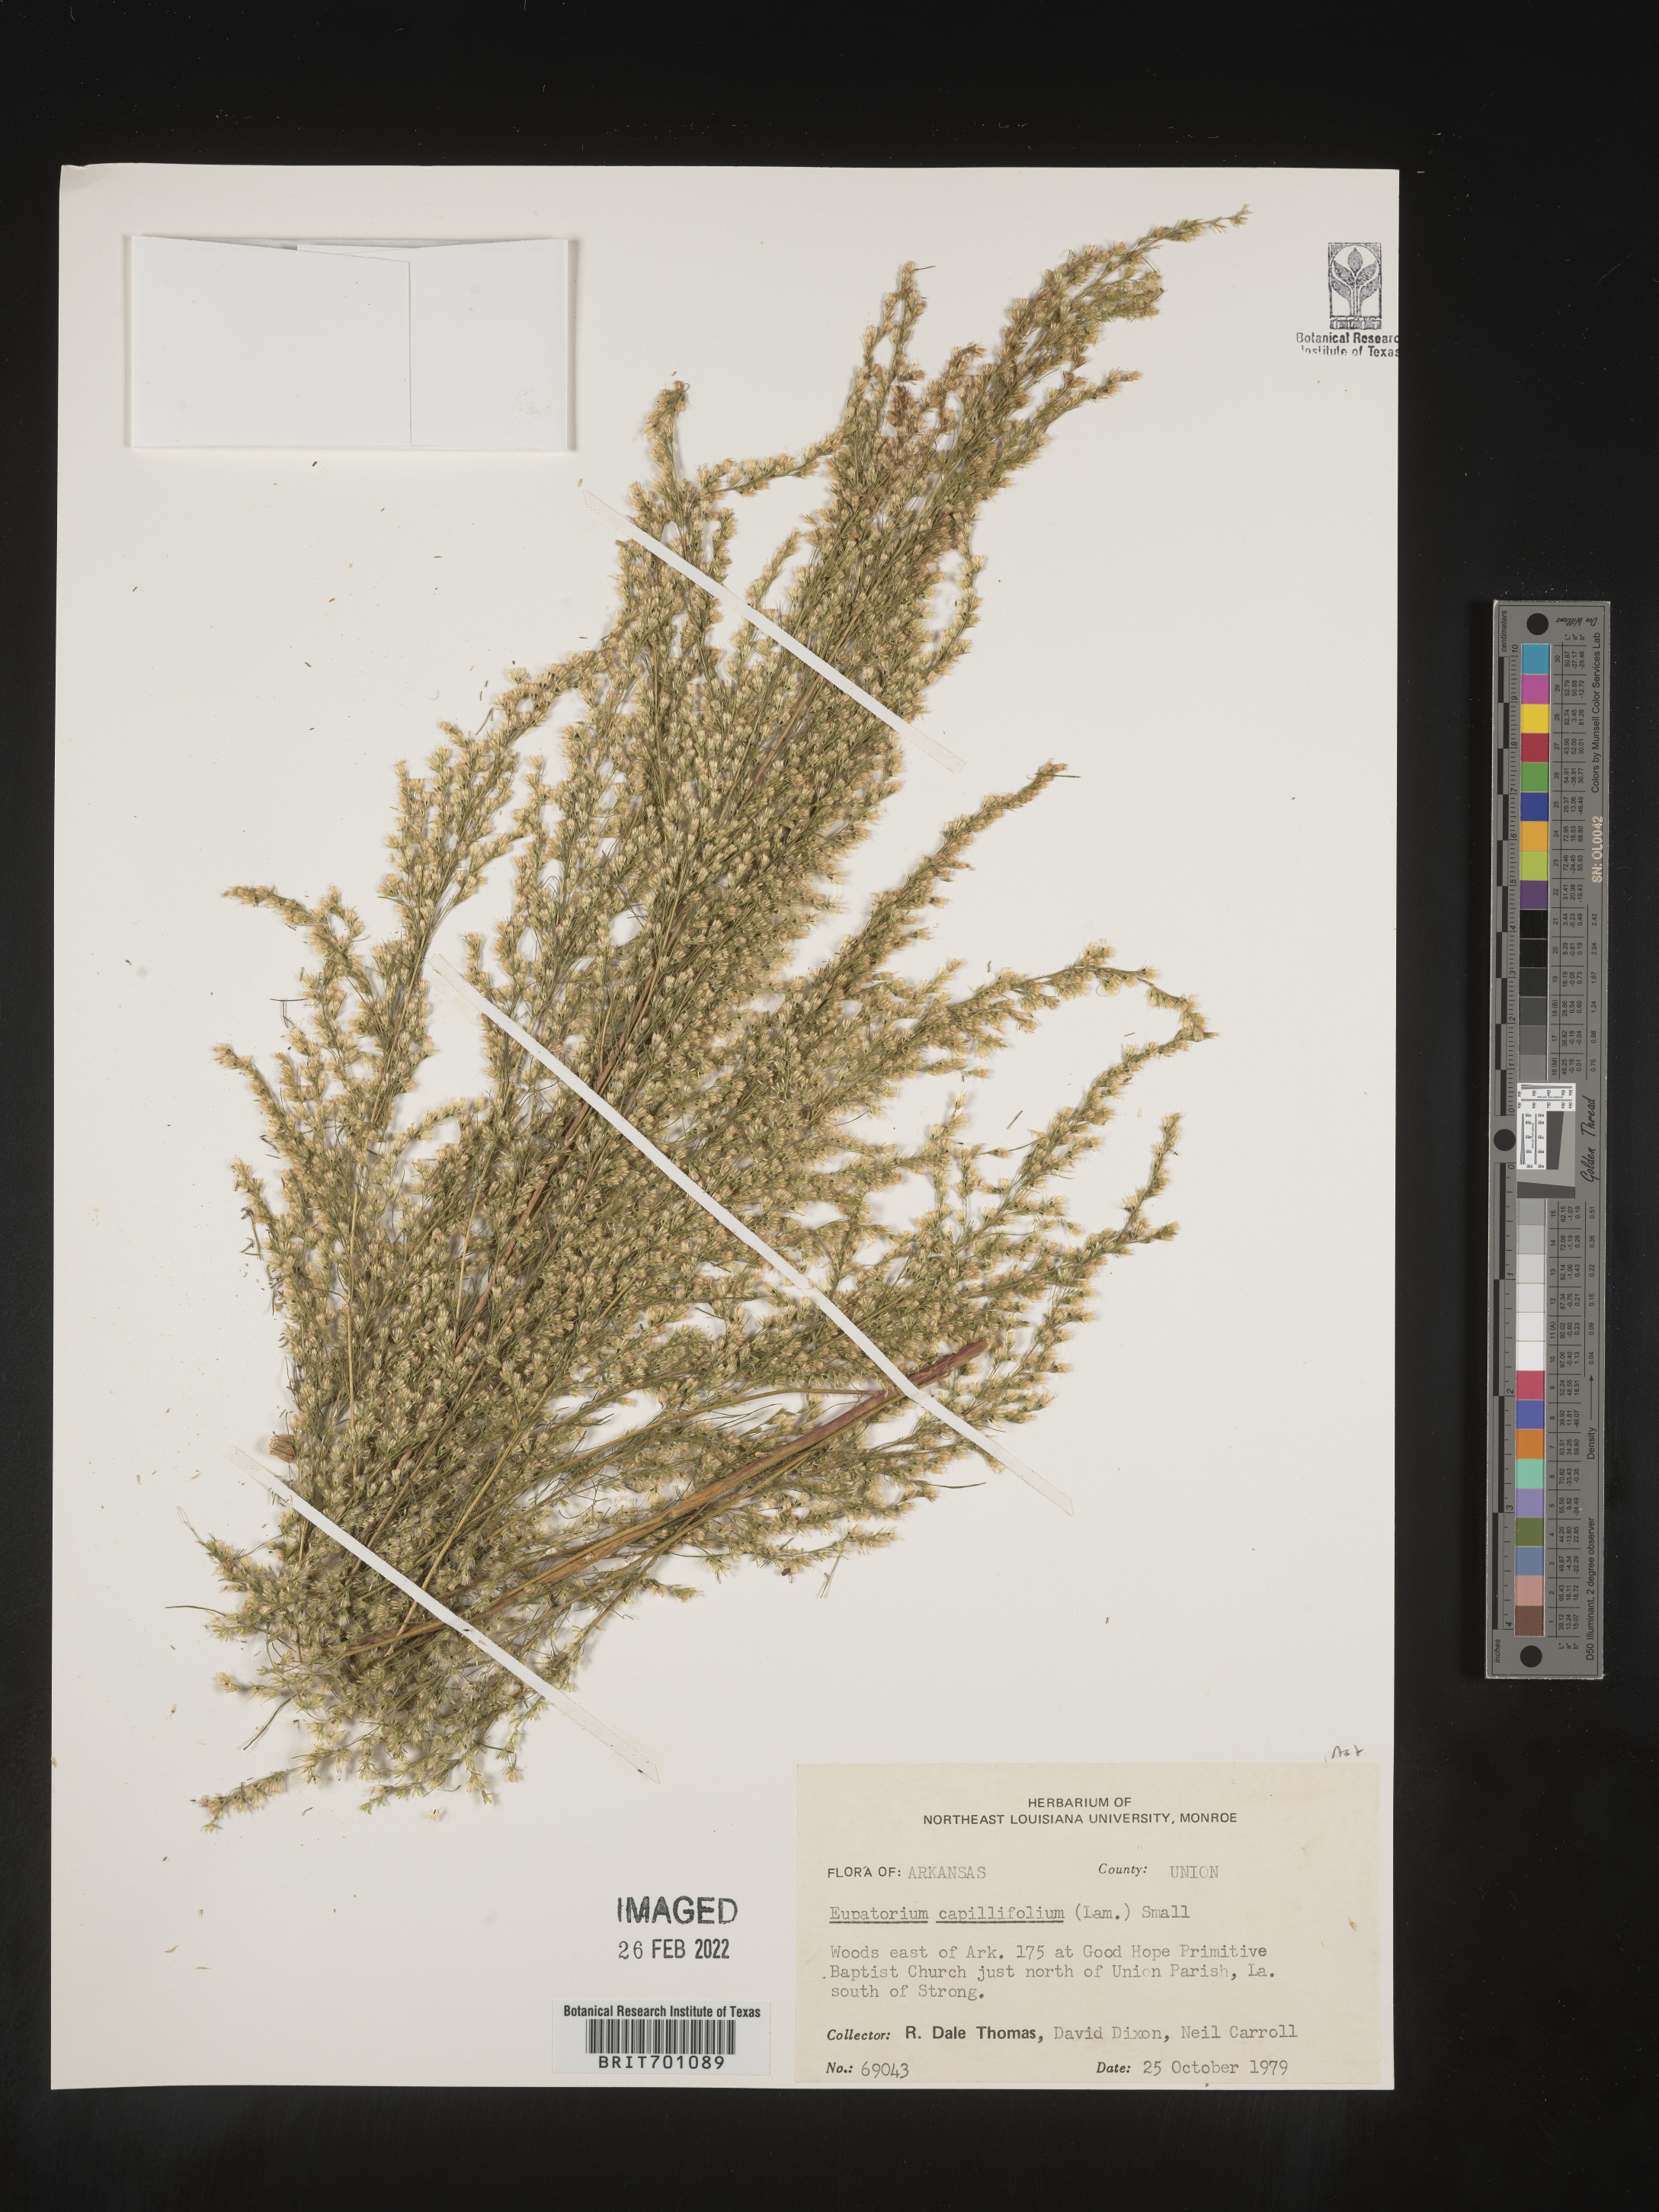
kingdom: Plantae
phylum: Tracheophyta
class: Magnoliopsida
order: Asterales
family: Asteraceae
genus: Eupatorium
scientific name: Eupatorium capillifolium
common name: Dog-fennel
